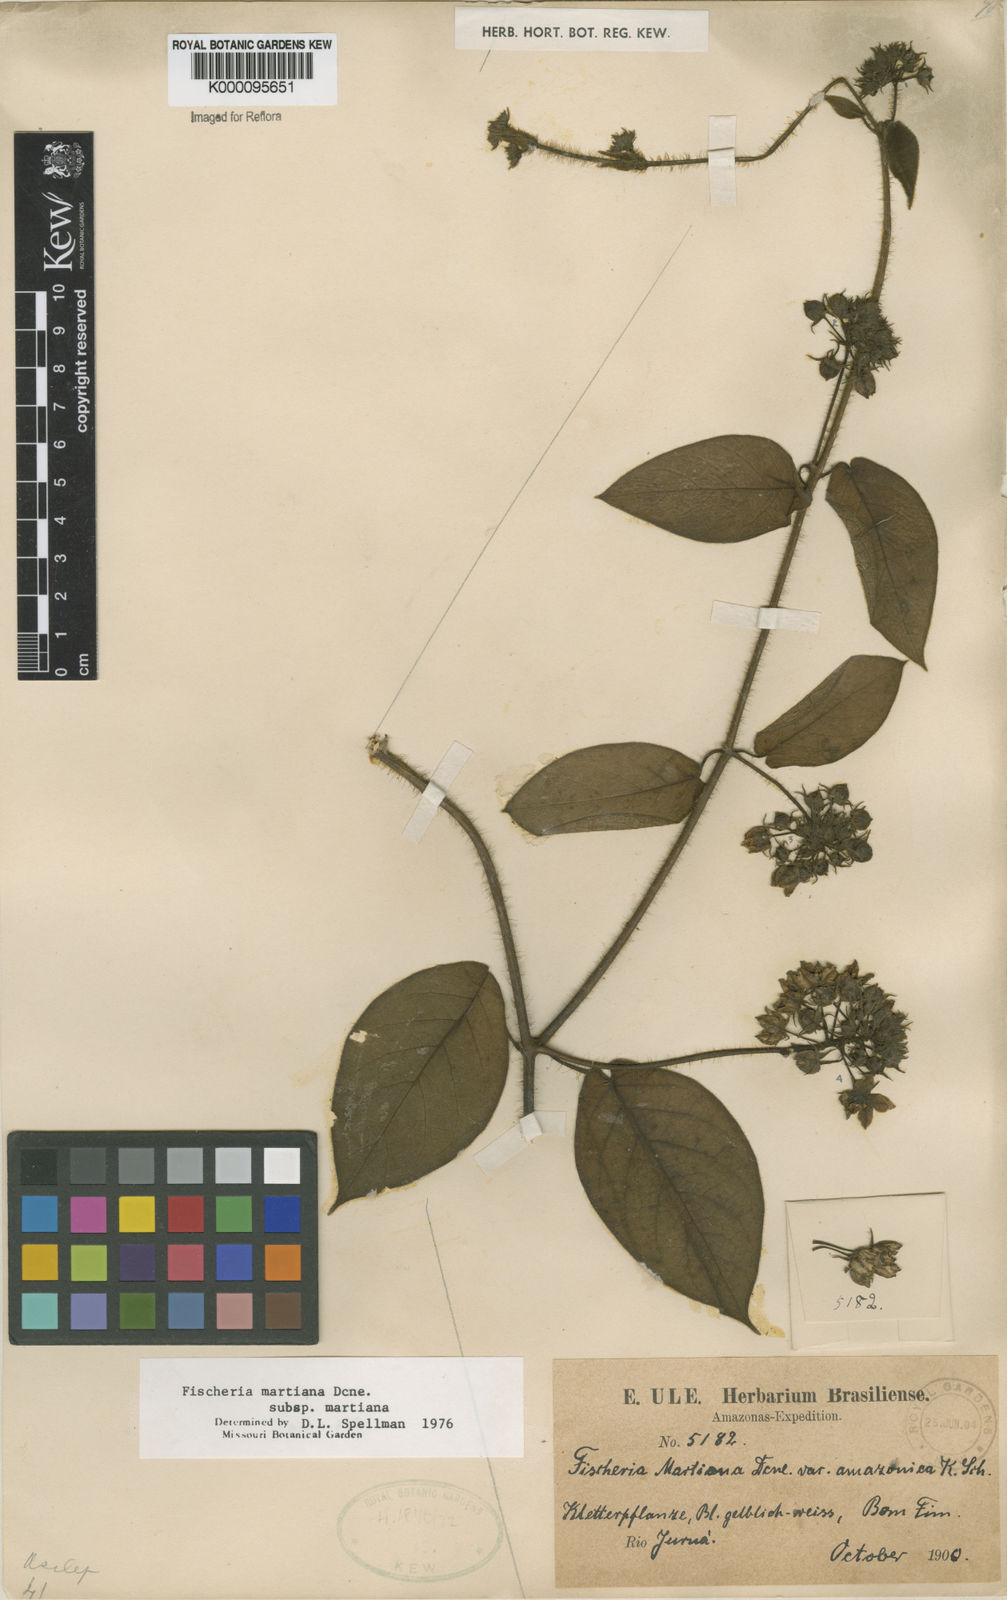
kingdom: Plantae
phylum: Tracheophyta
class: Magnoliopsida
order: Gentianales
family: Apocynaceae
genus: Fischeria
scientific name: Fischeria stellata
